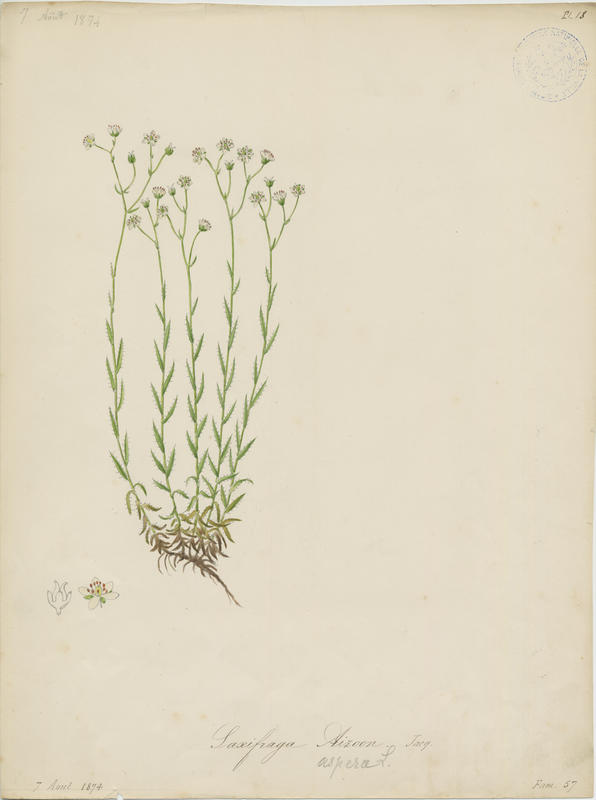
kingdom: Plantae
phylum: Tracheophyta
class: Magnoliopsida
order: Saxifragales
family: Saxifragaceae
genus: Saxifraga
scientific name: Saxifraga paniculata
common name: Livelong saxifrage
